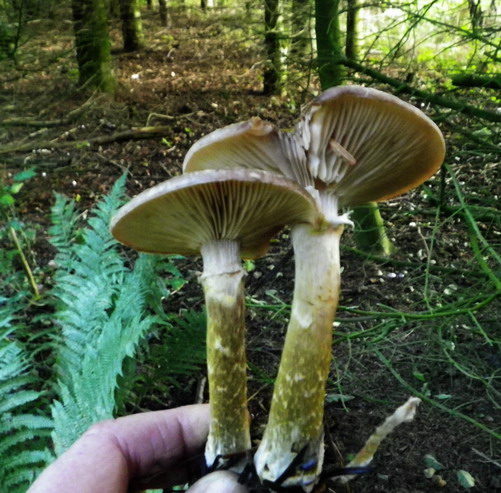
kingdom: Fungi
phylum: Basidiomycota
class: Agaricomycetes
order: Agaricales
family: Physalacriaceae
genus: Armillaria
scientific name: Armillaria lutea
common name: køllestokket honningsvamp
